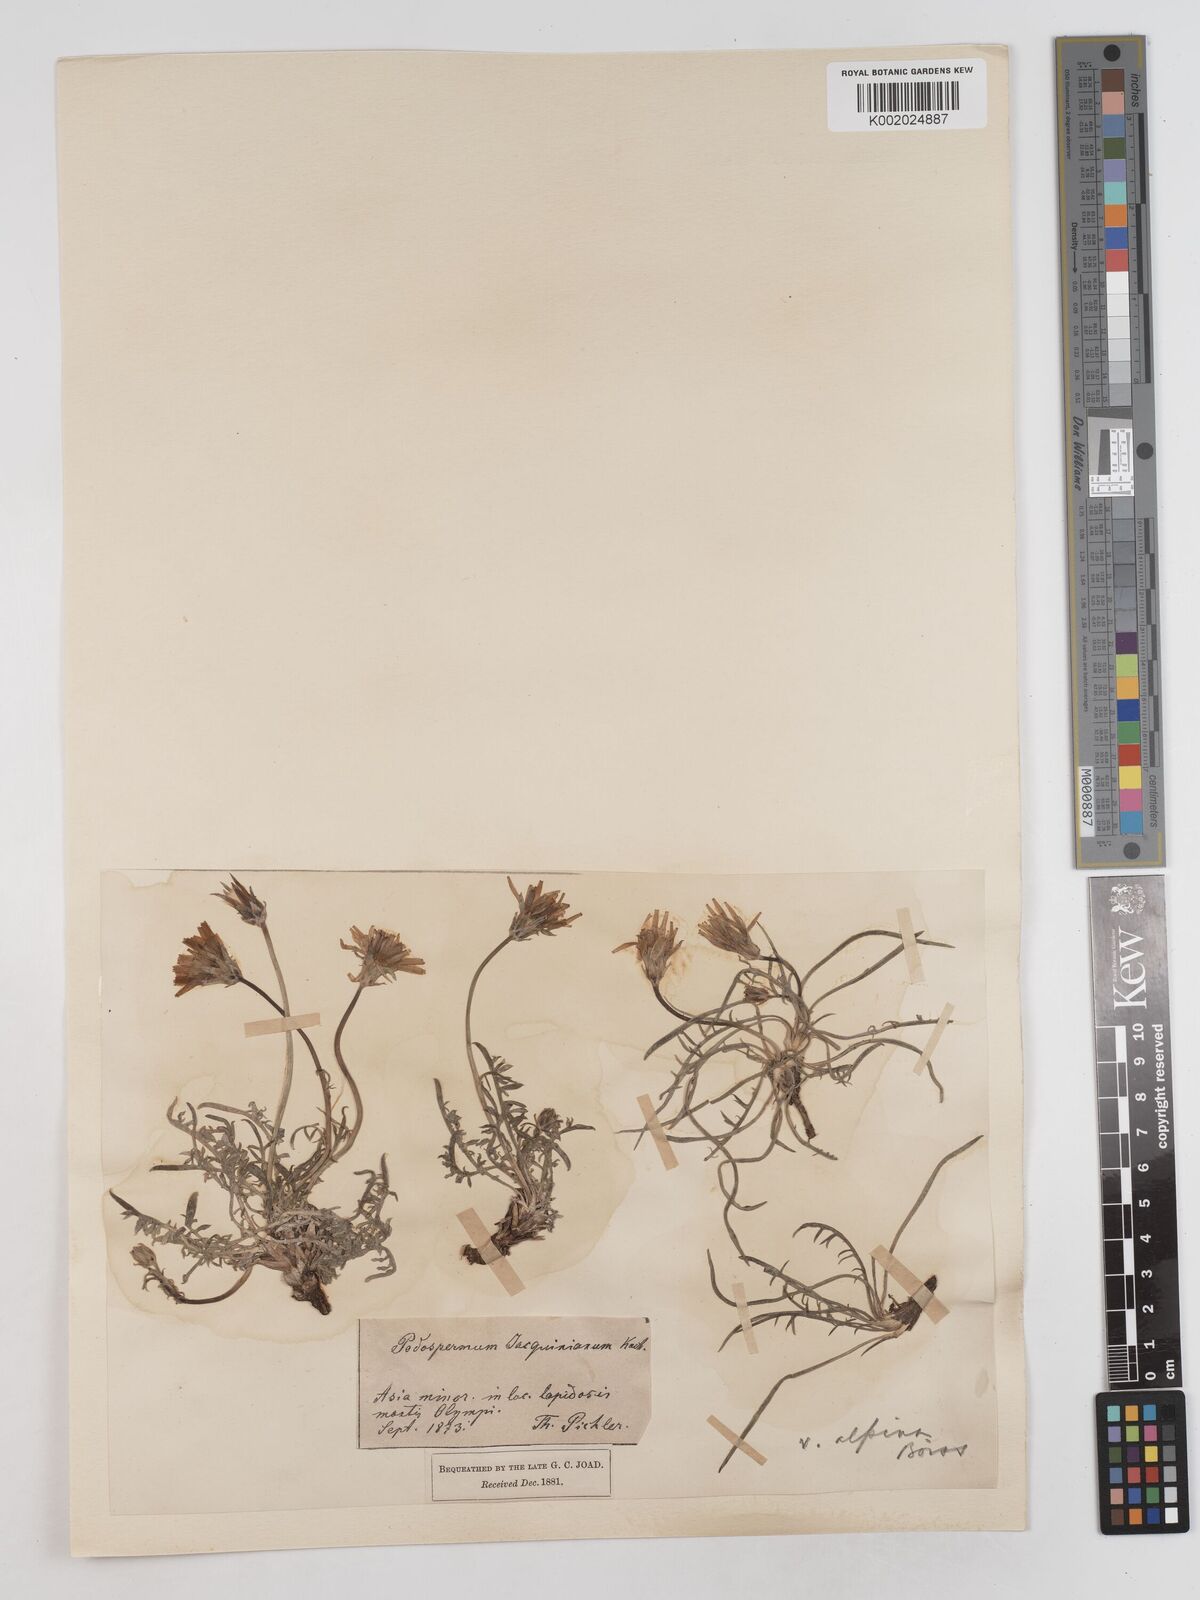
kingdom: Plantae
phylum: Tracheophyta
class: Magnoliopsida
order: Asterales
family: Asteraceae
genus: Scorzonera
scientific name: Scorzonera cana
